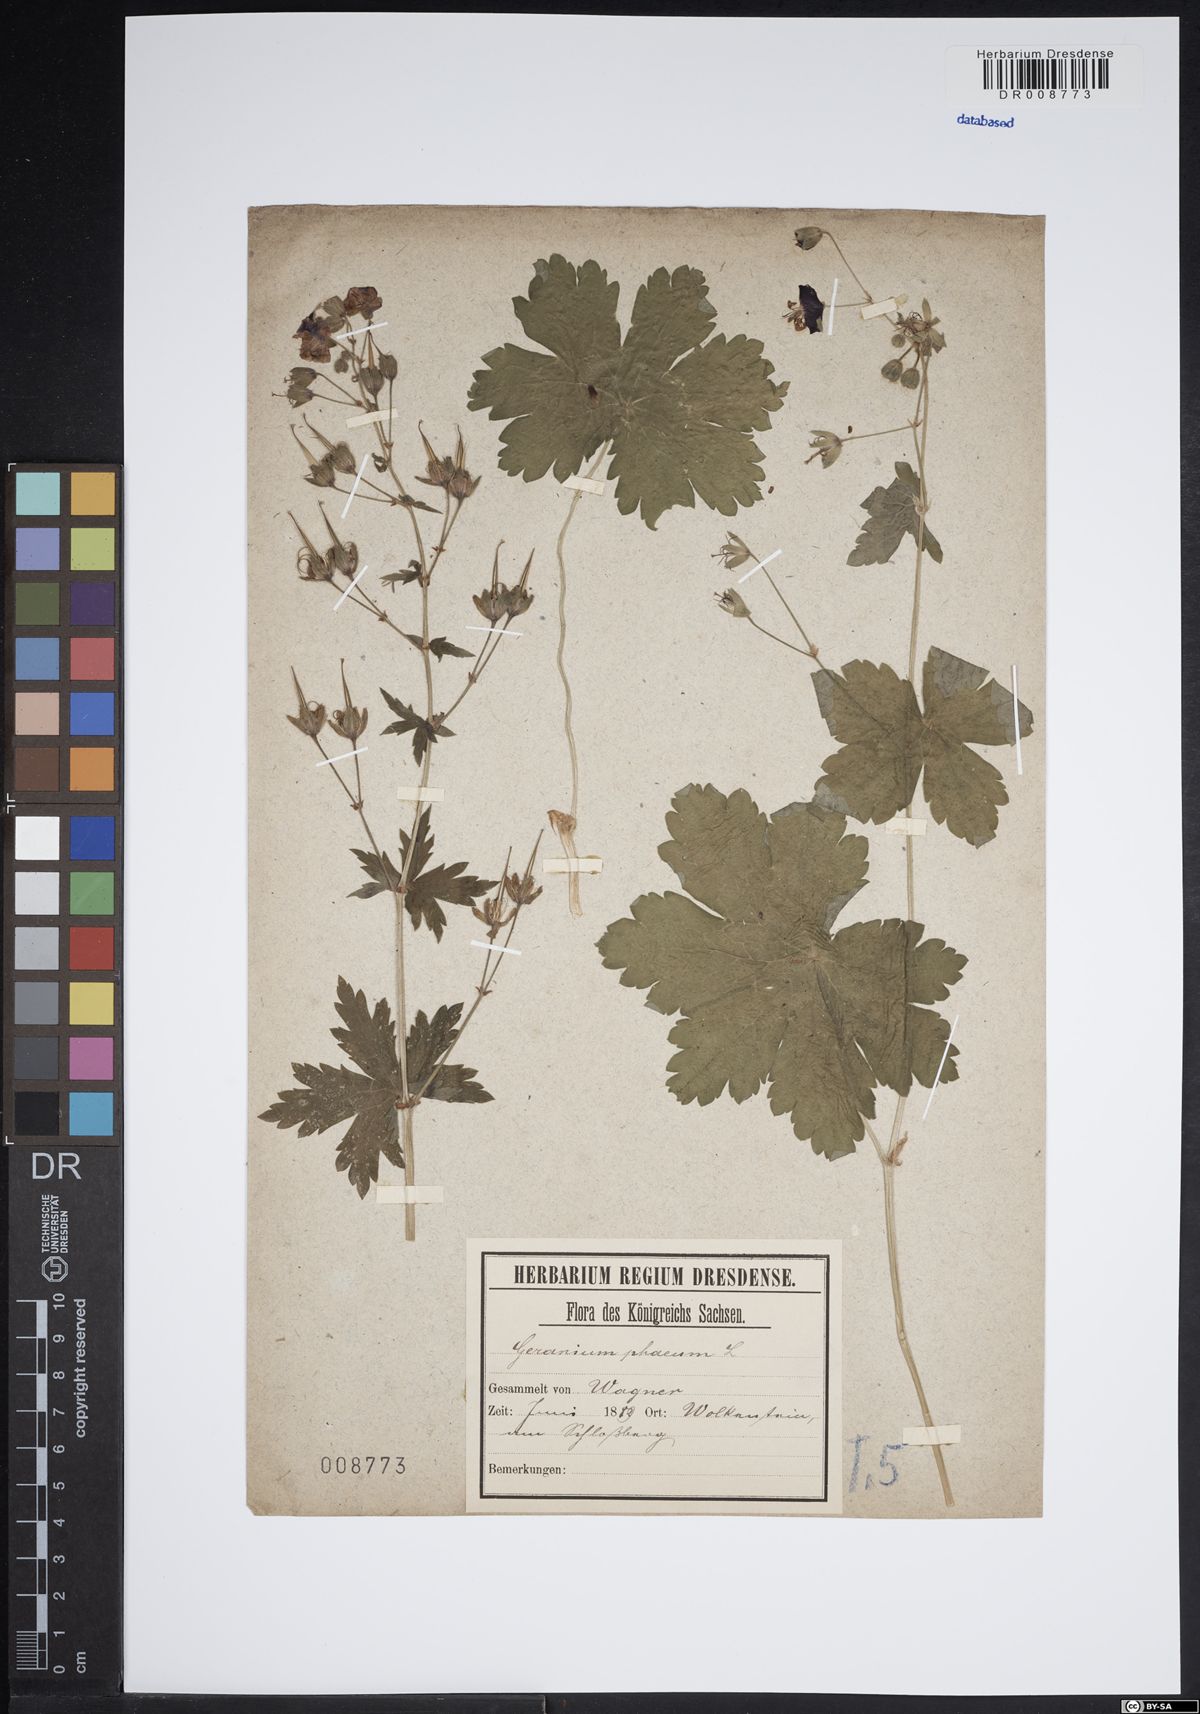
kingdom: Plantae
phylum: Tracheophyta
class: Magnoliopsida
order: Geraniales
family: Geraniaceae
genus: Geranium
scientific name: Geranium phaeum
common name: Dusky crane's-bill
